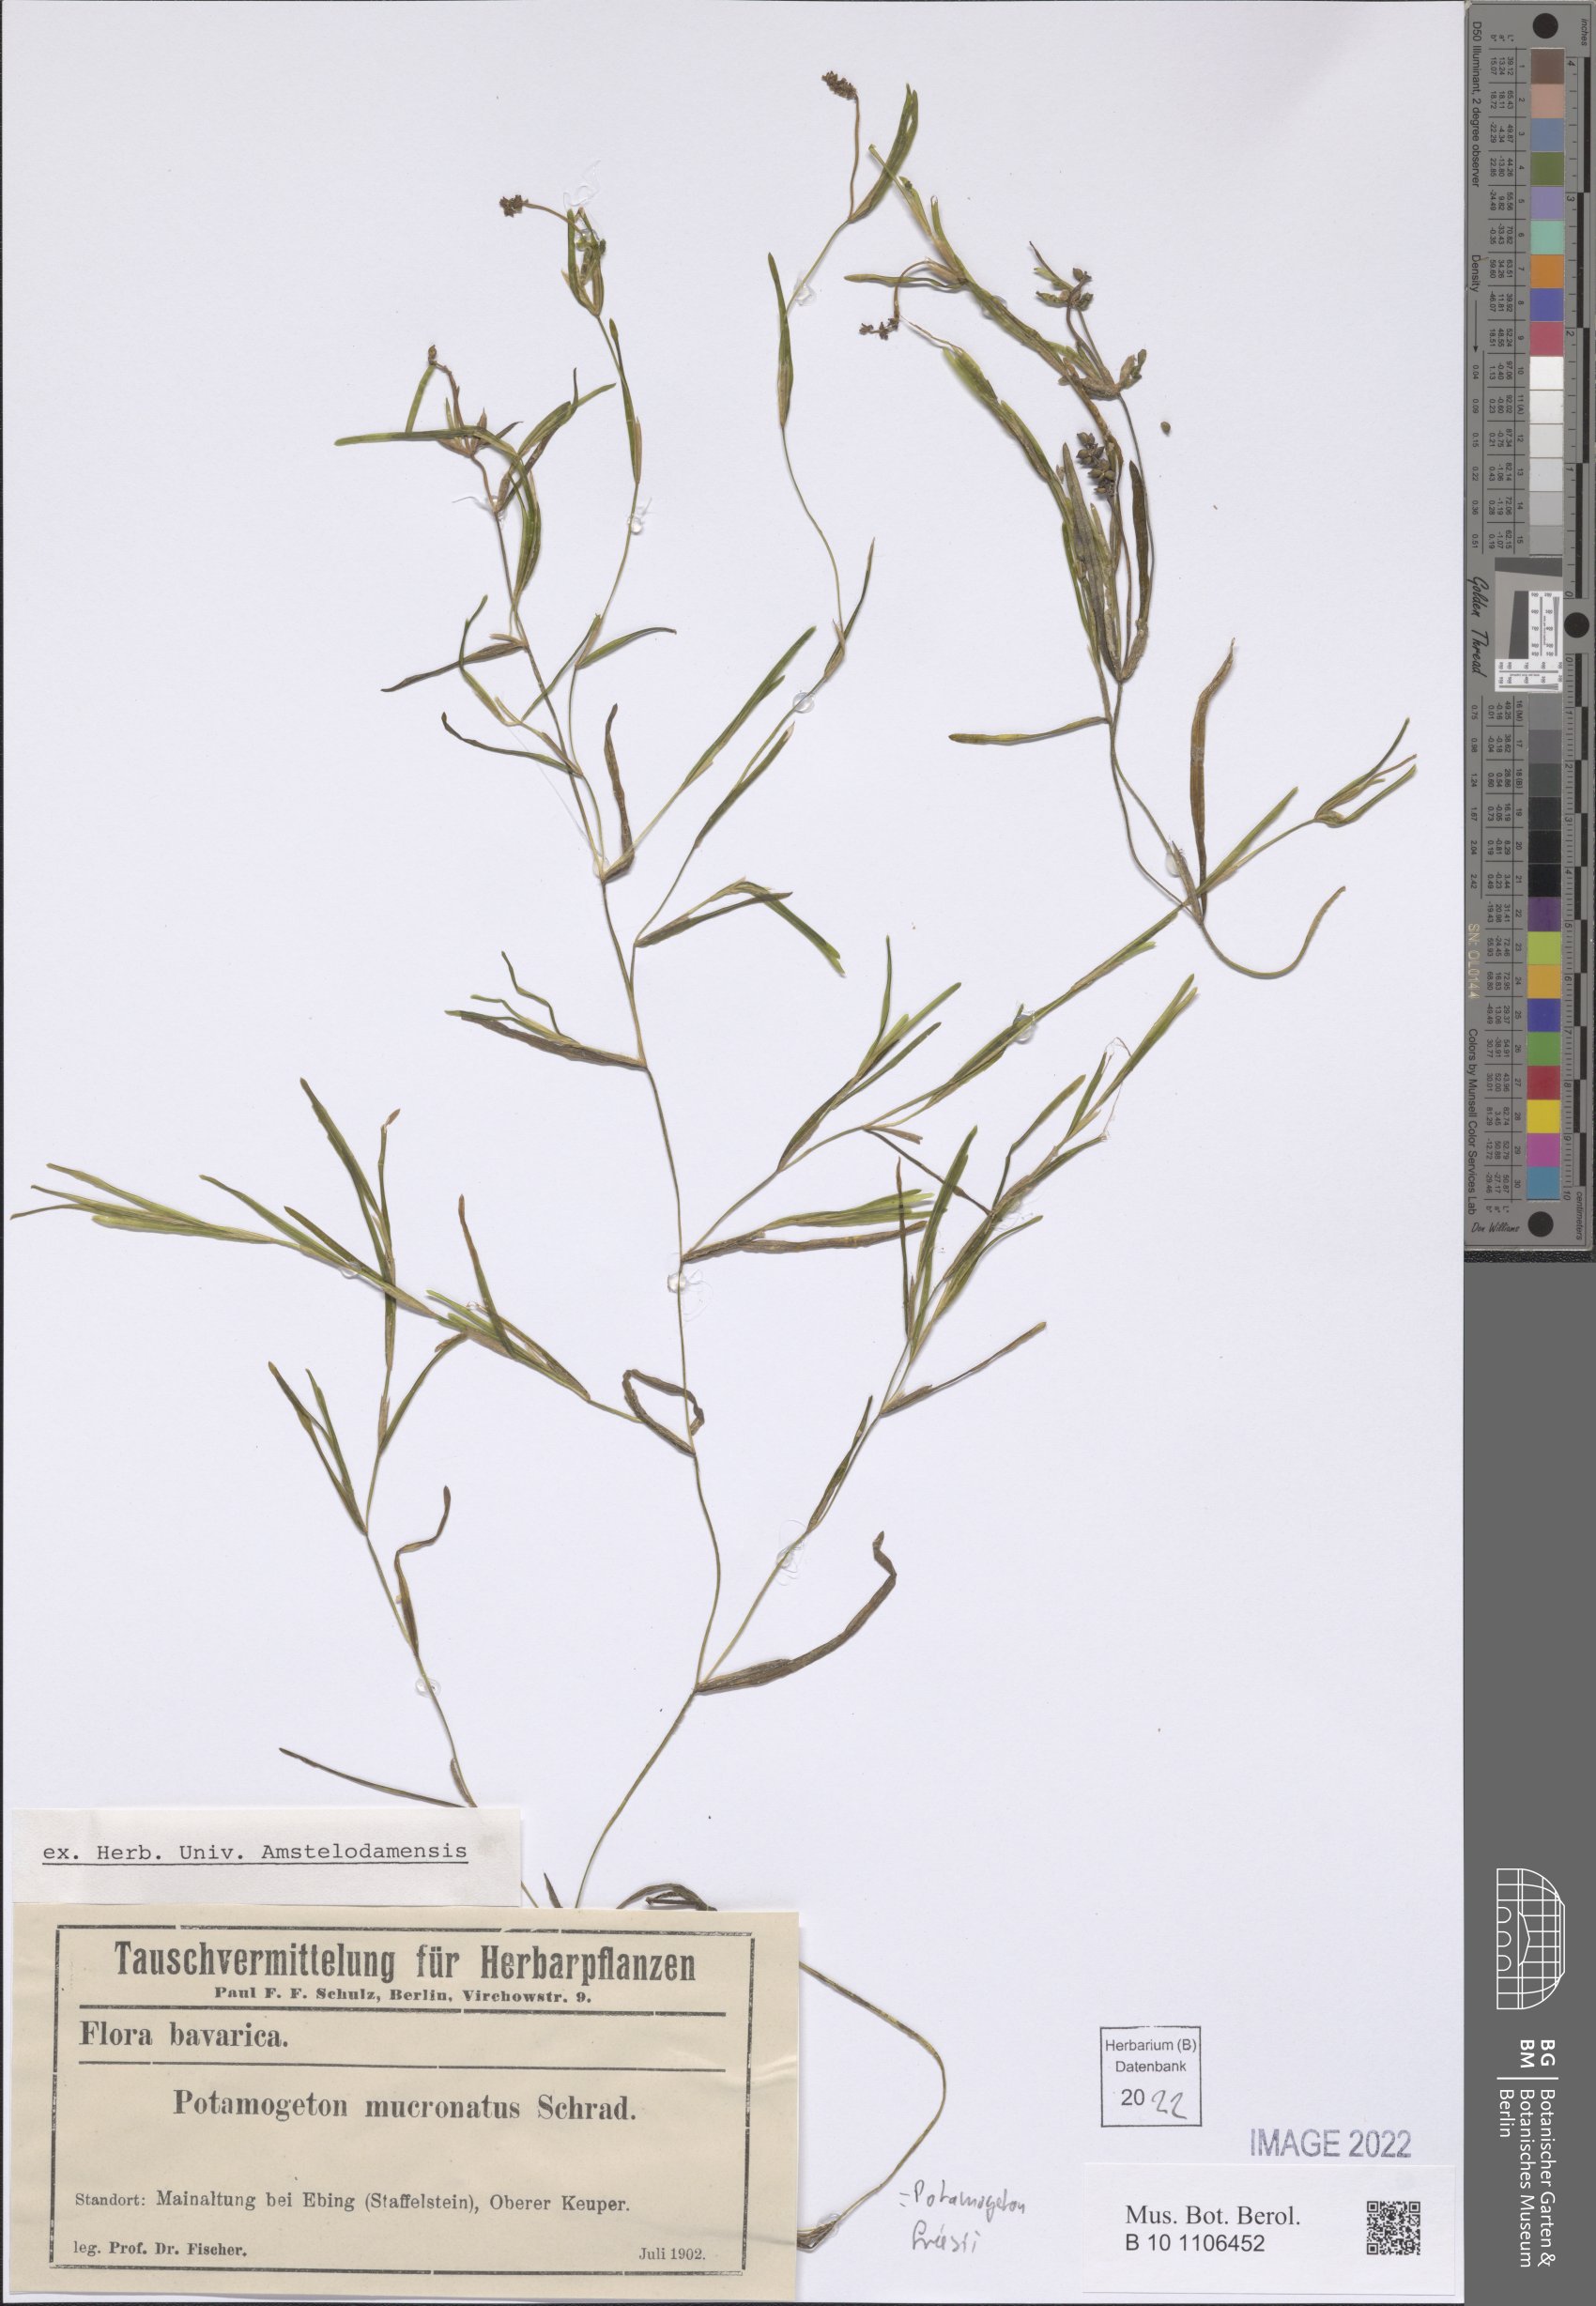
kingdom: Plantae
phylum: Tracheophyta
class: Liliopsida
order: Alismatales
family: Potamogetonaceae
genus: Potamogeton
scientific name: Potamogeton friesii
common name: Flat-stalked pondweed
